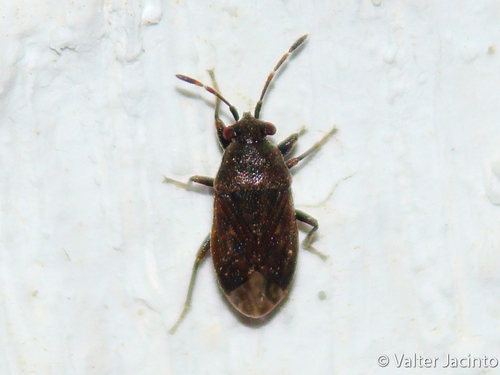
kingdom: Animalia
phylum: Arthropoda
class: Insecta
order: Hemiptera
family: Rhyparochromidae
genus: Stygnocoris
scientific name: Stygnocoris
